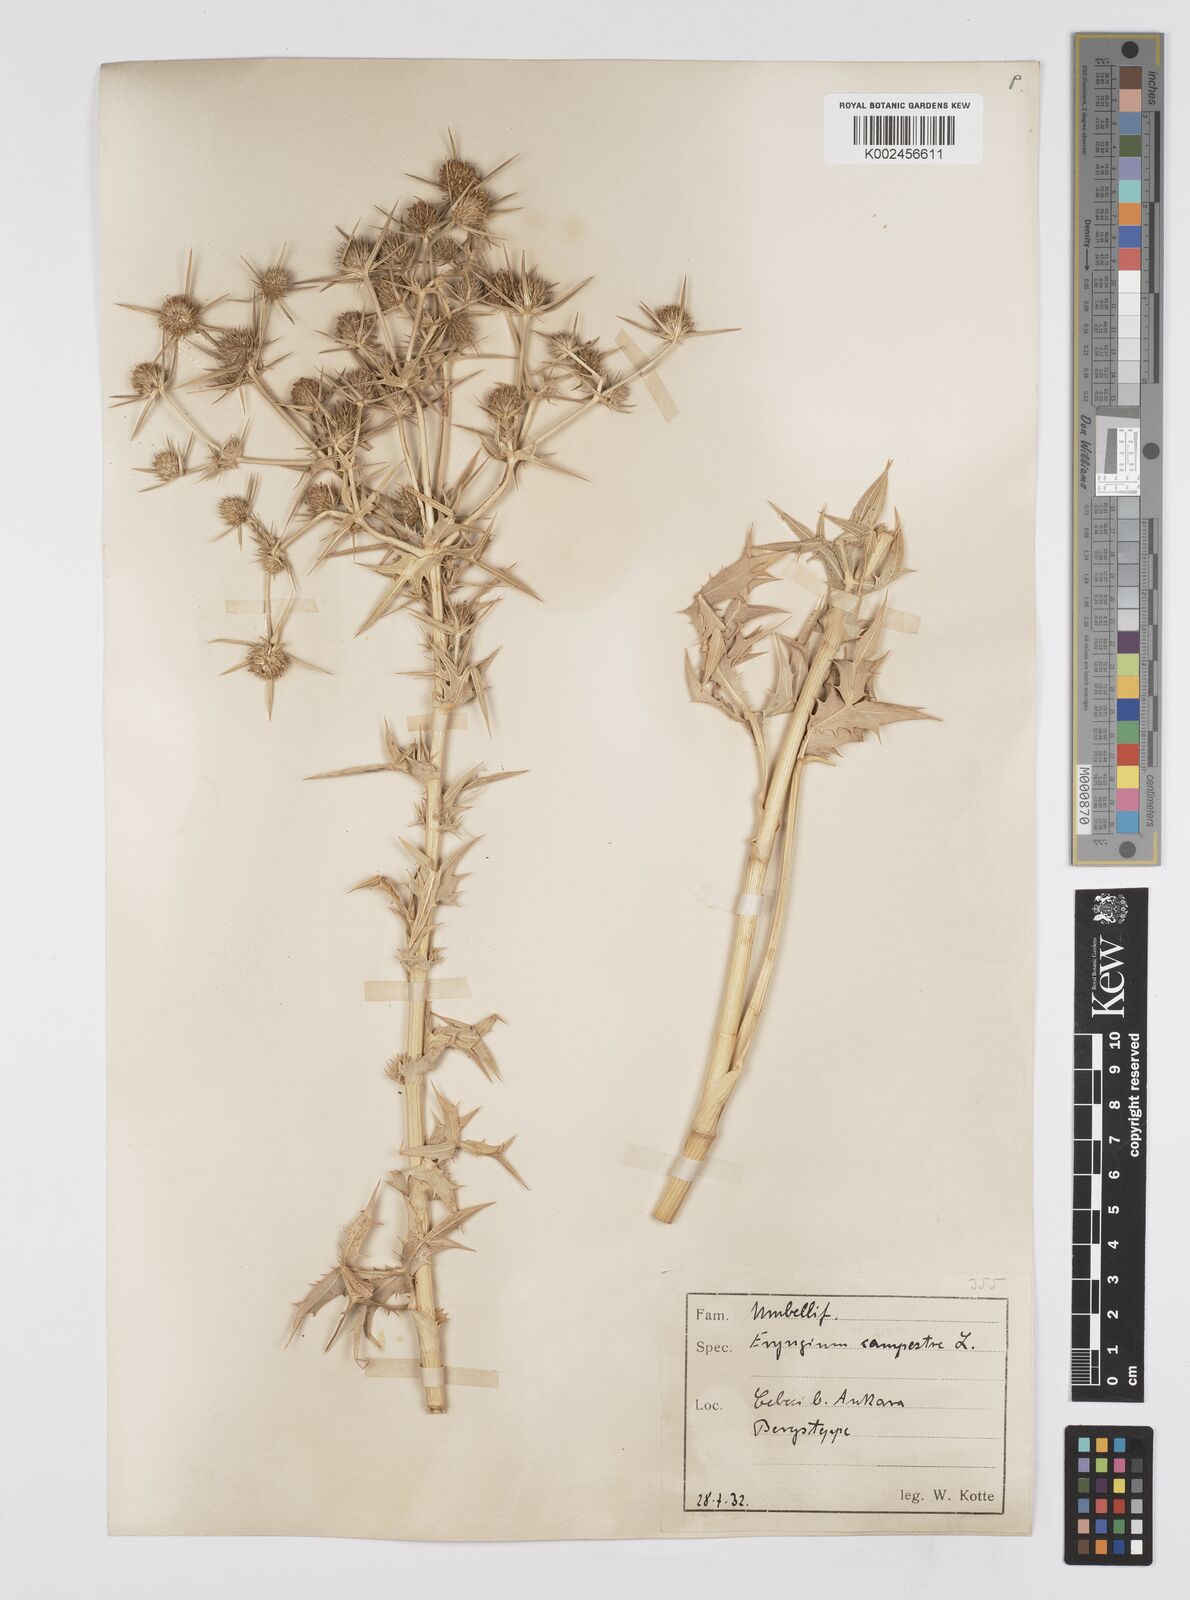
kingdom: Plantae
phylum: Tracheophyta
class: Magnoliopsida
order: Apiales
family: Apiaceae
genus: Eryngium
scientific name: Eryngium campestre
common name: Field eryngo
